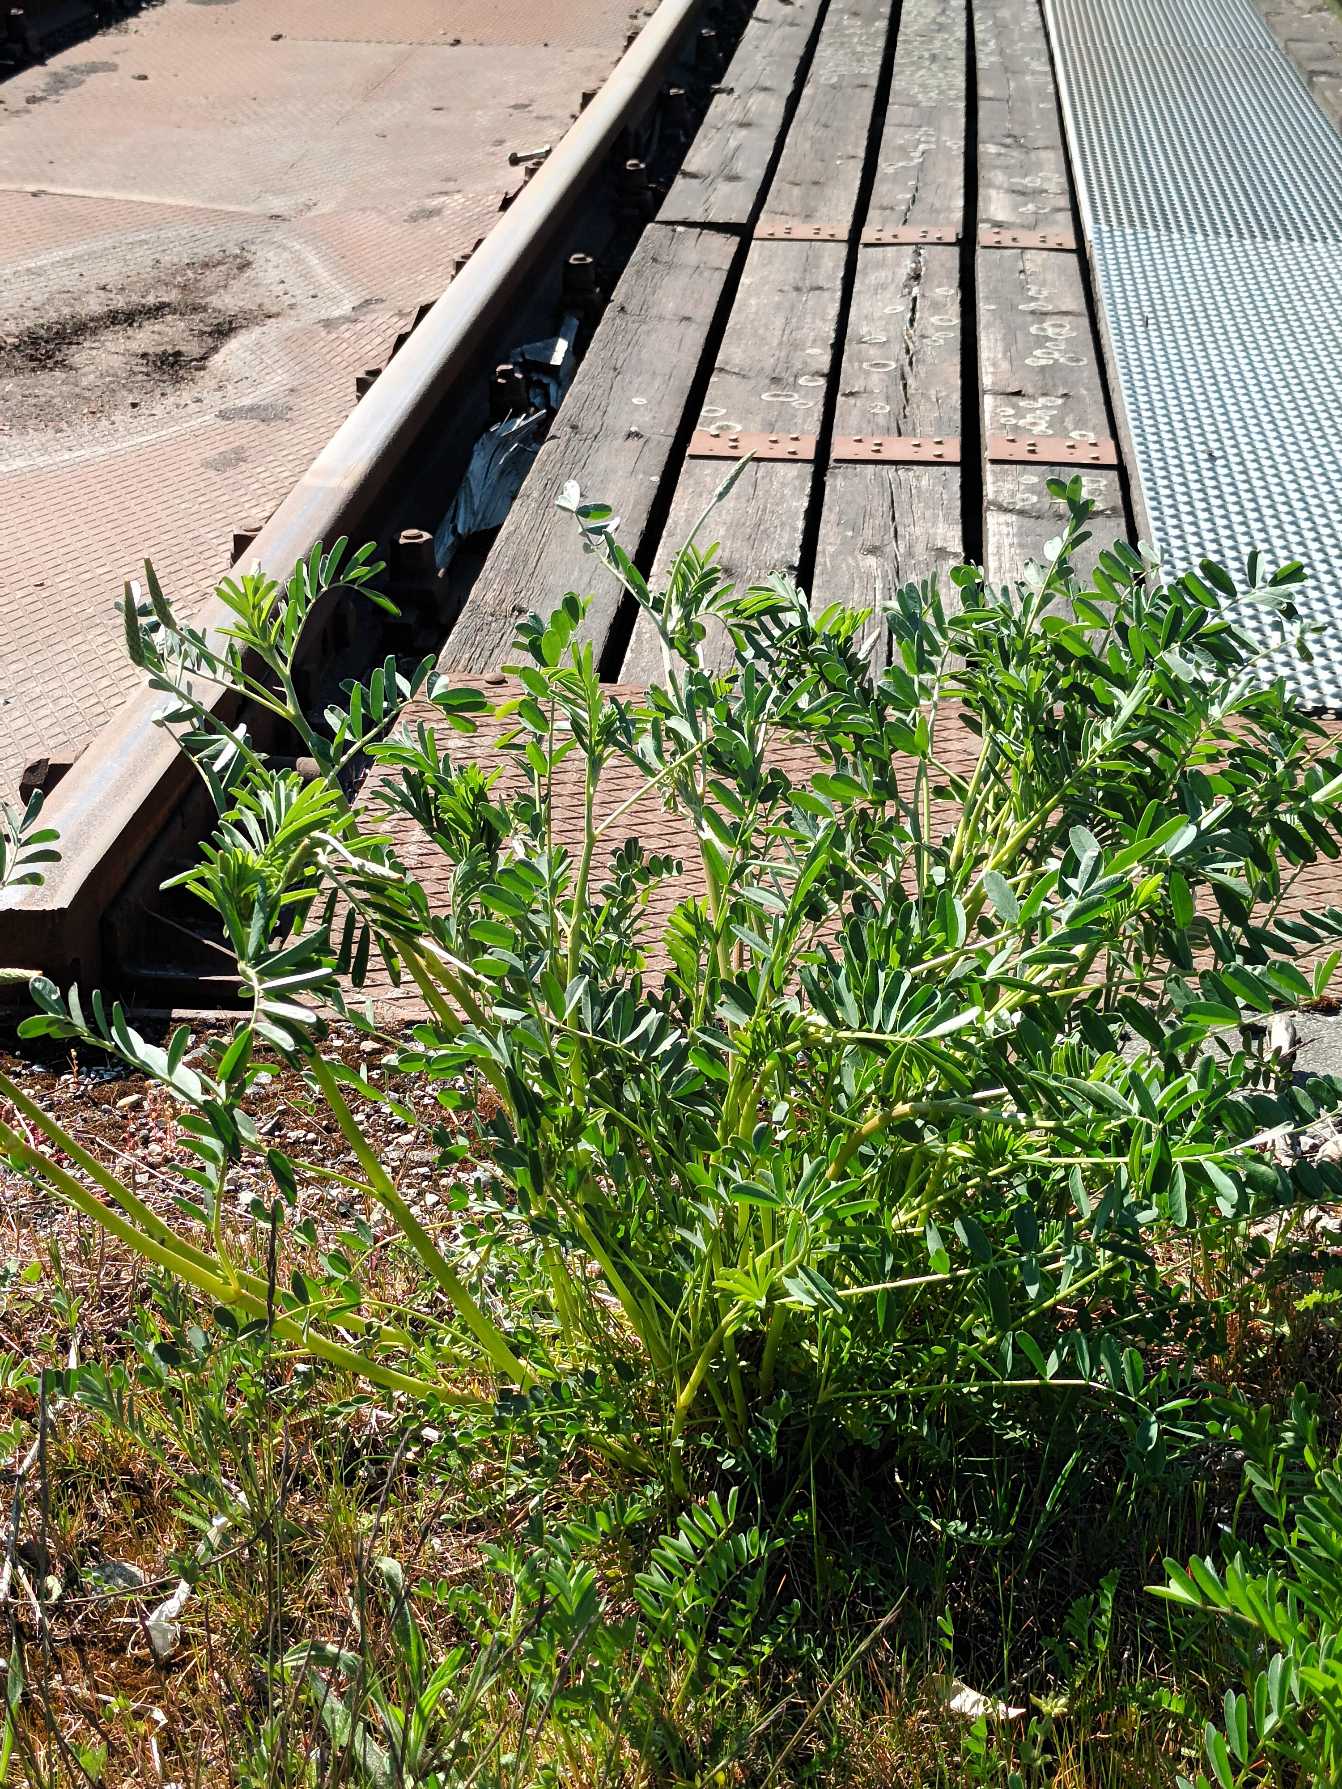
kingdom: Plantae
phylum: Tracheophyta
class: Magnoliopsida
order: Fabales
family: Fabaceae
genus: Onobrychis
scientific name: Onobrychis viciifolia
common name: Esparsette
